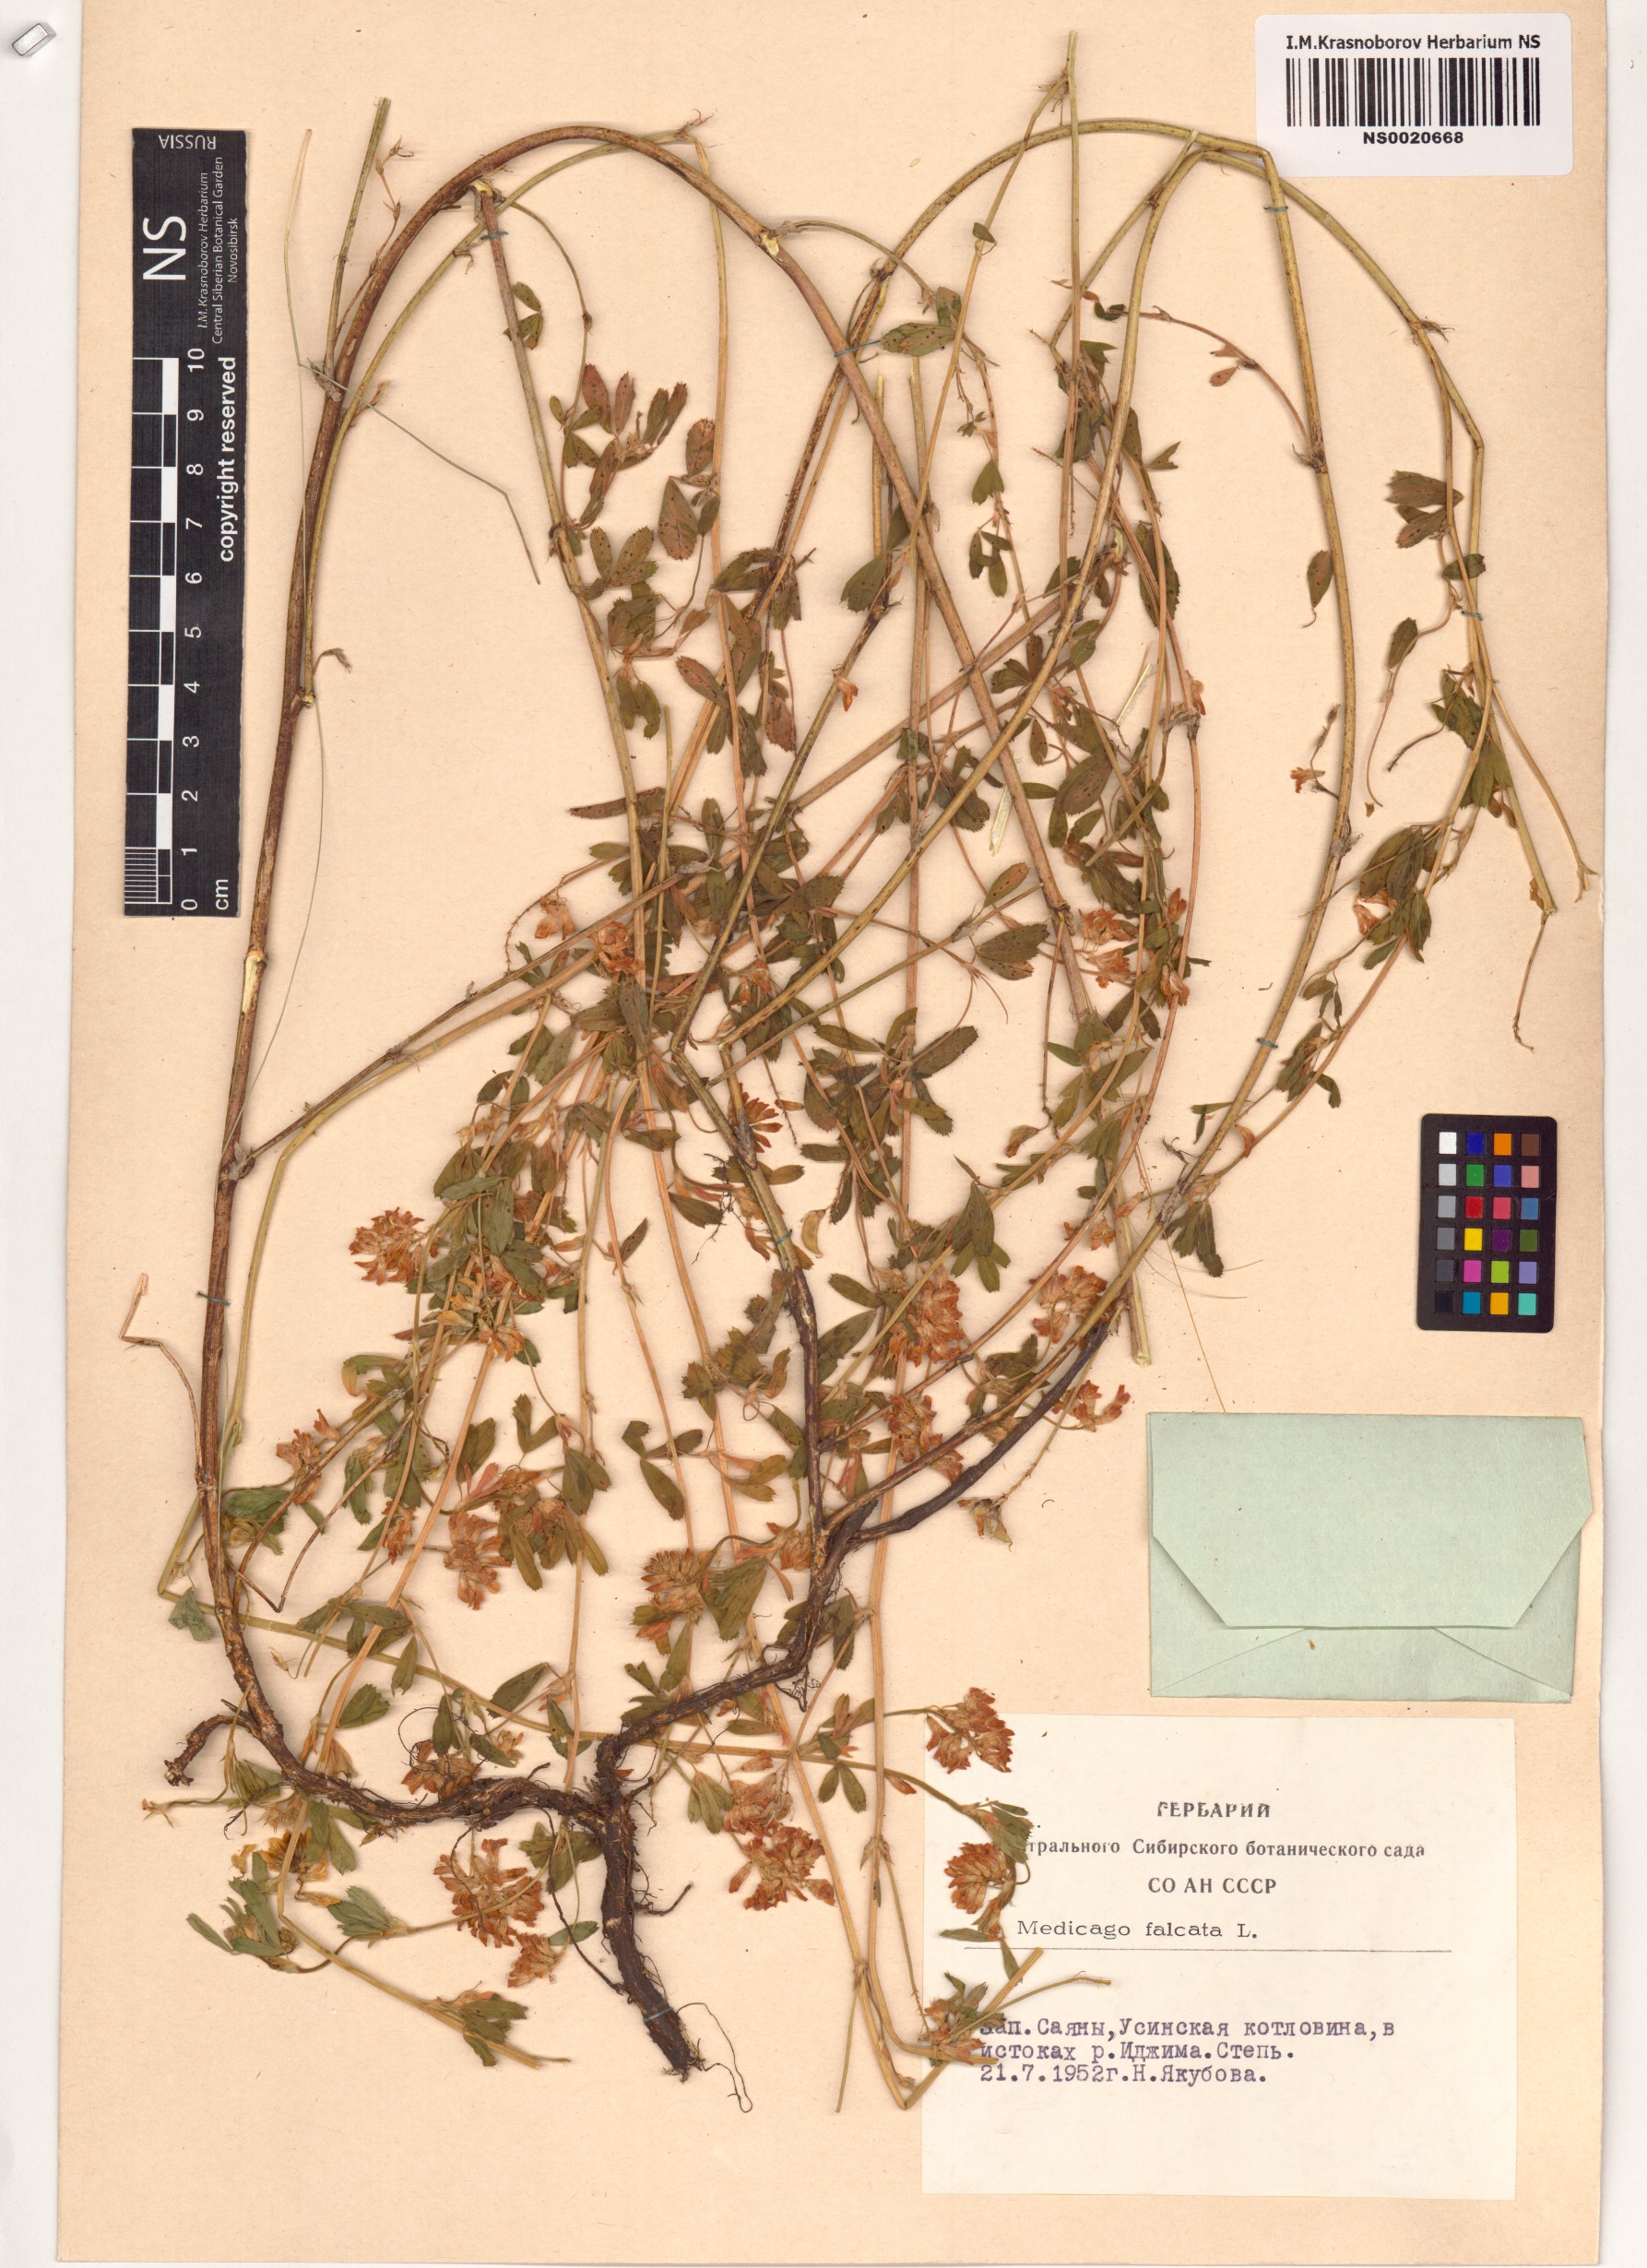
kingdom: Plantae
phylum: Tracheophyta
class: Magnoliopsida
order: Fabales
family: Fabaceae
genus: Medicago
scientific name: Medicago falcata
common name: Sickle medick
